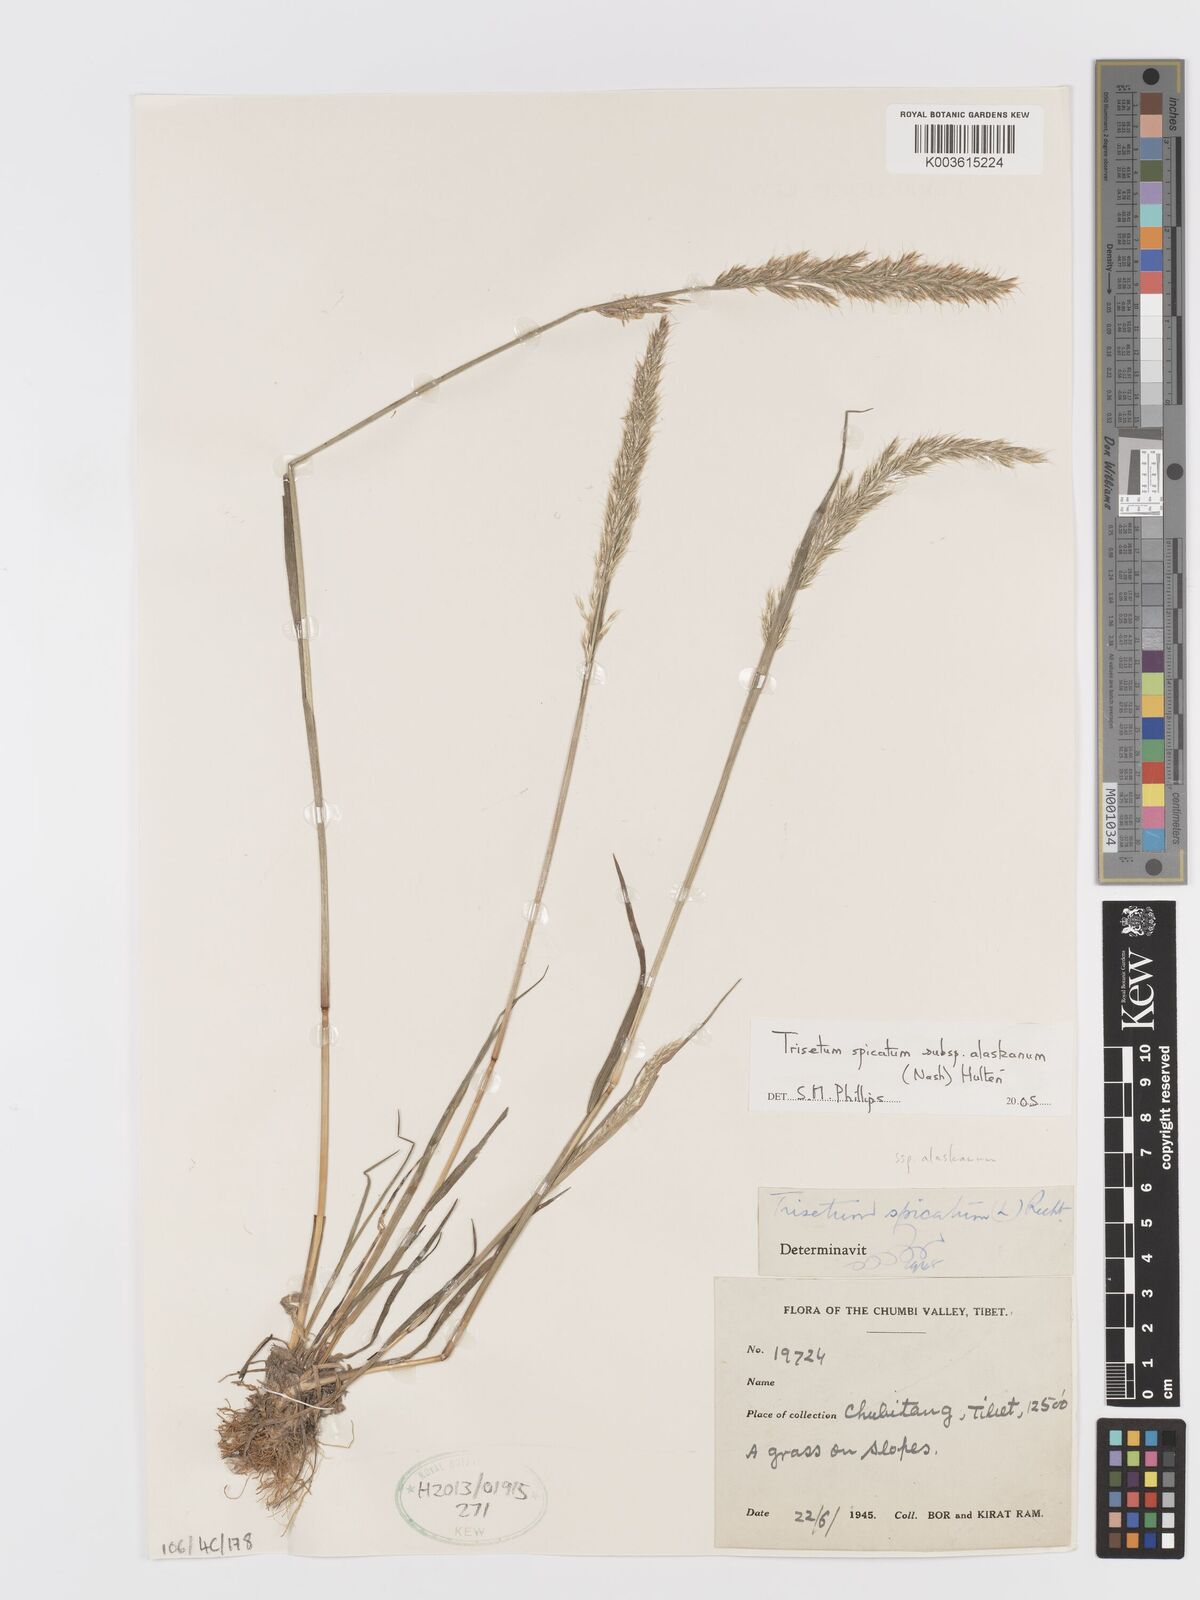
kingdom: Plantae
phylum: Tracheophyta
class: Liliopsida
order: Poales
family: Poaceae
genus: Koeleria
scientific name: Koeleria spicata
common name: Mountain trisetum
